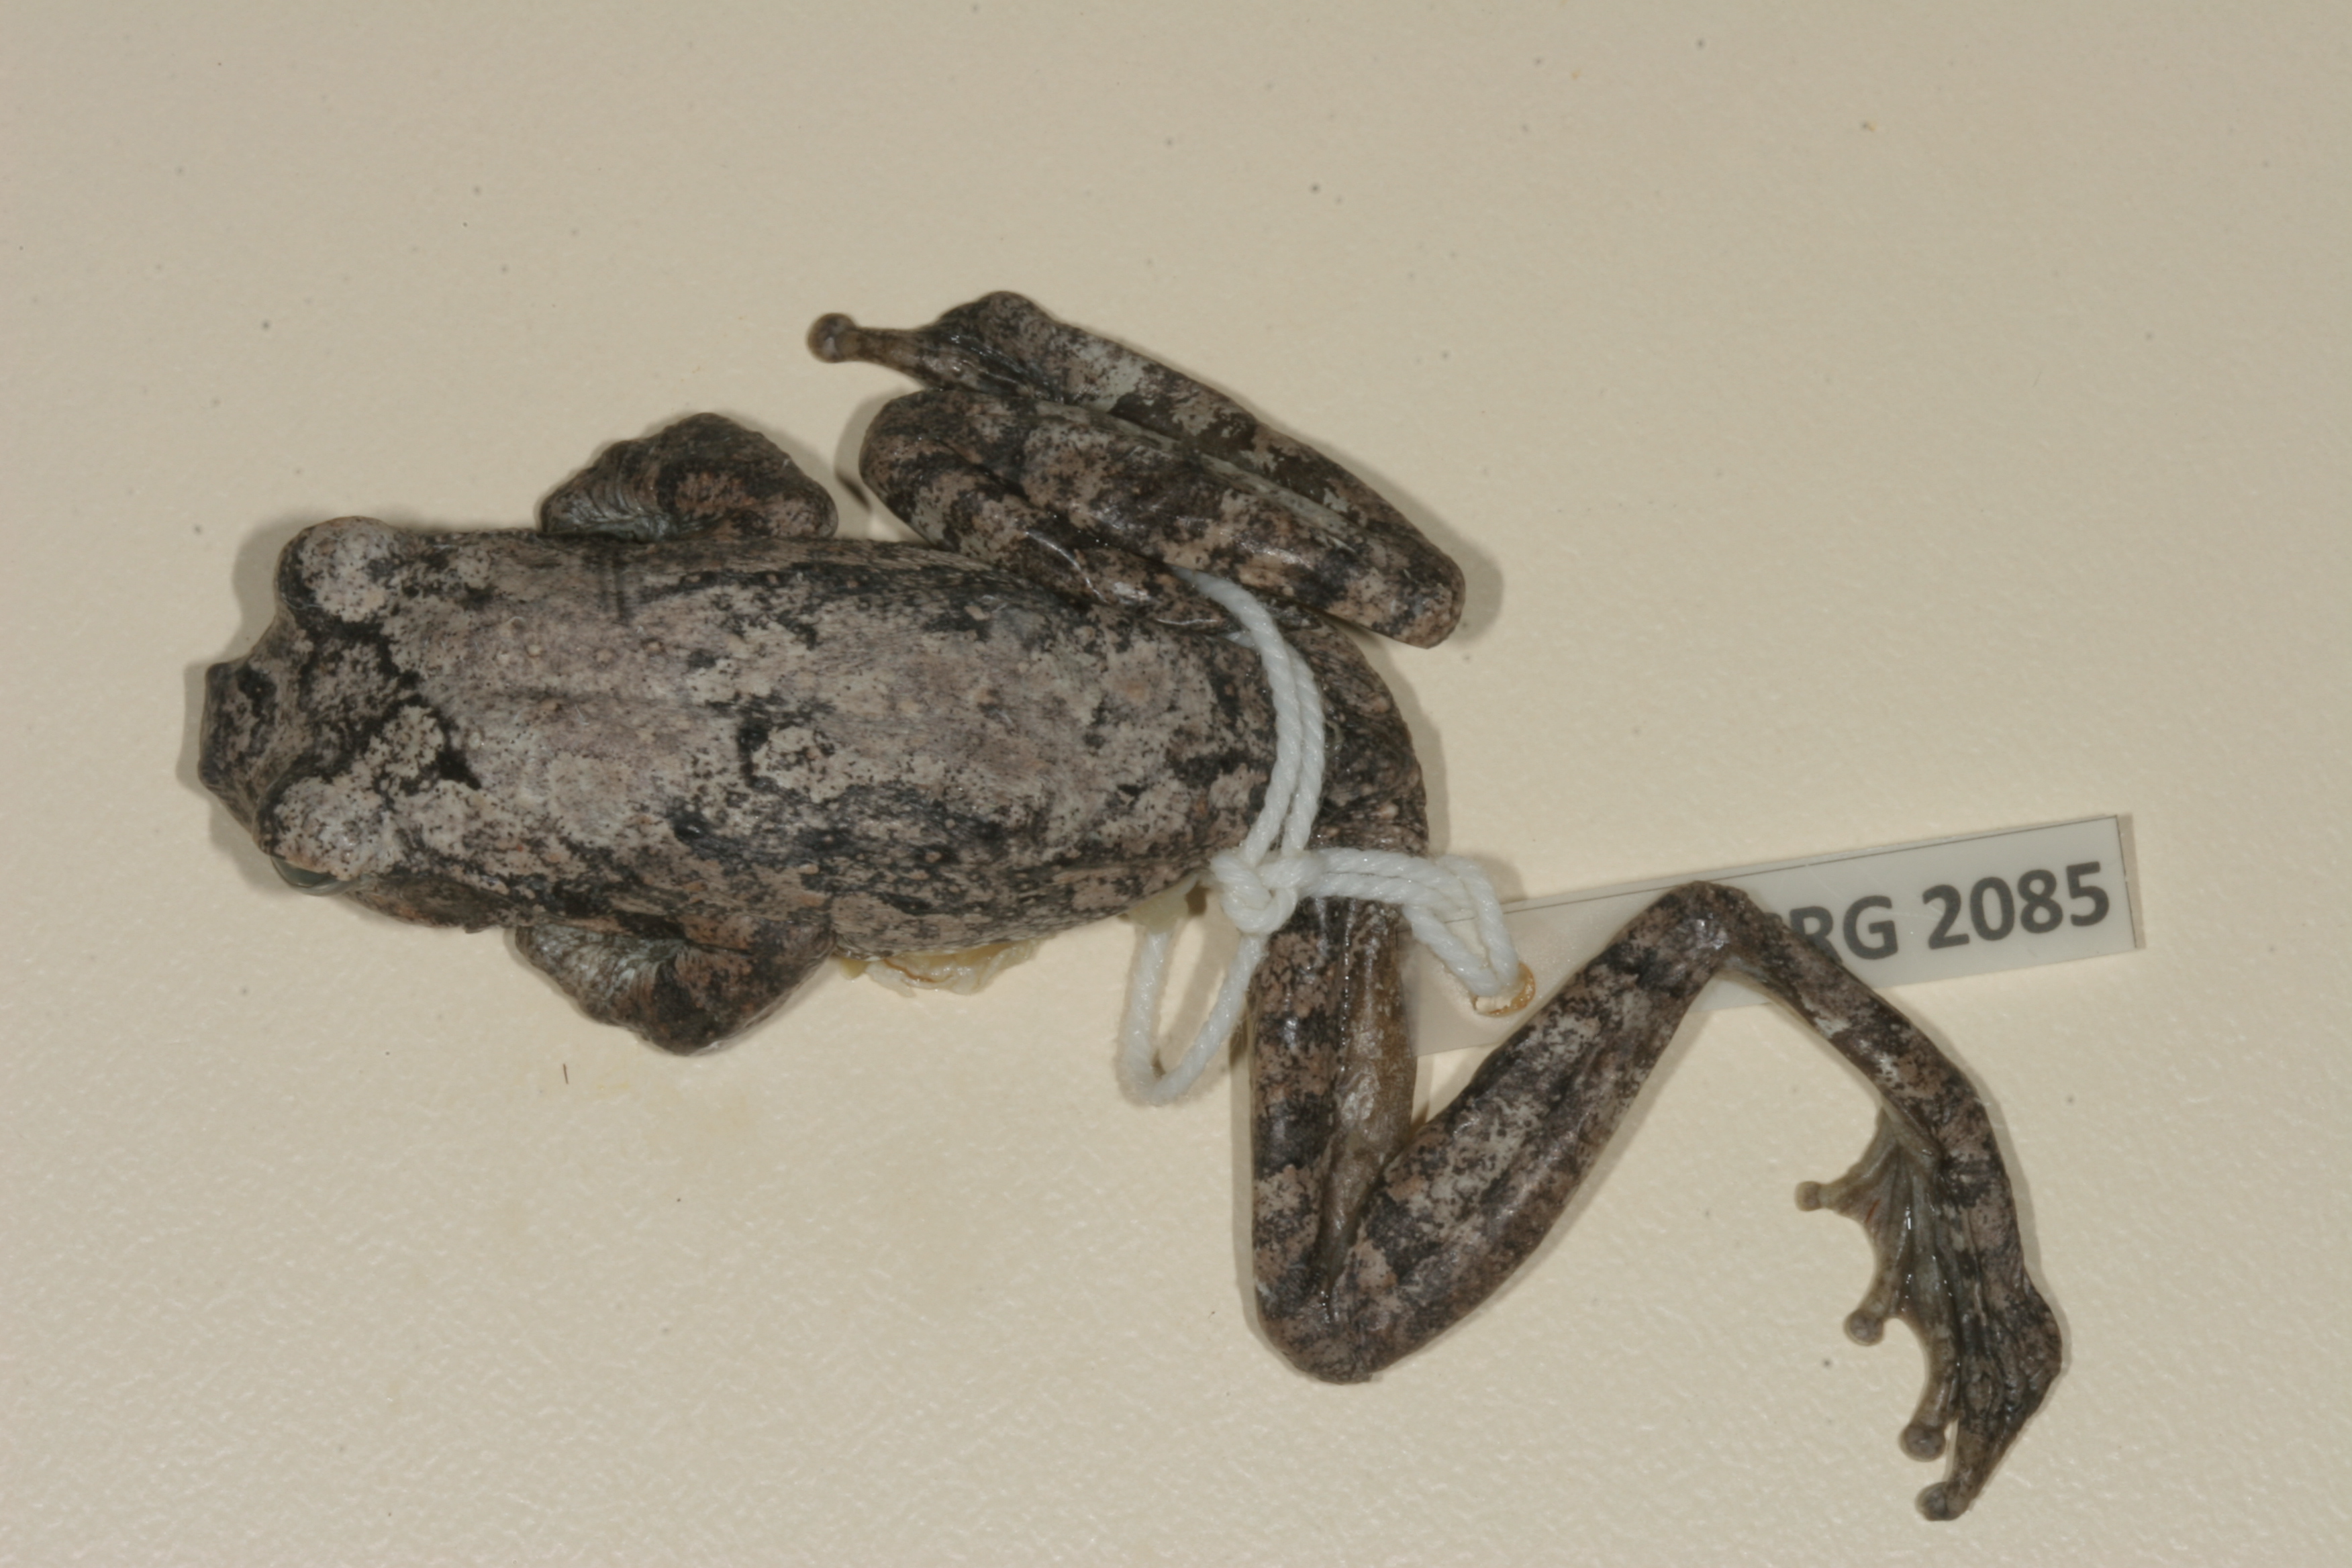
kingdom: Animalia
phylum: Chordata
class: Amphibia
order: Anura
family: Rhacophoridae
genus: Chiromantis
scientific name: Chiromantis xerampelina
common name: African gray treefrog
